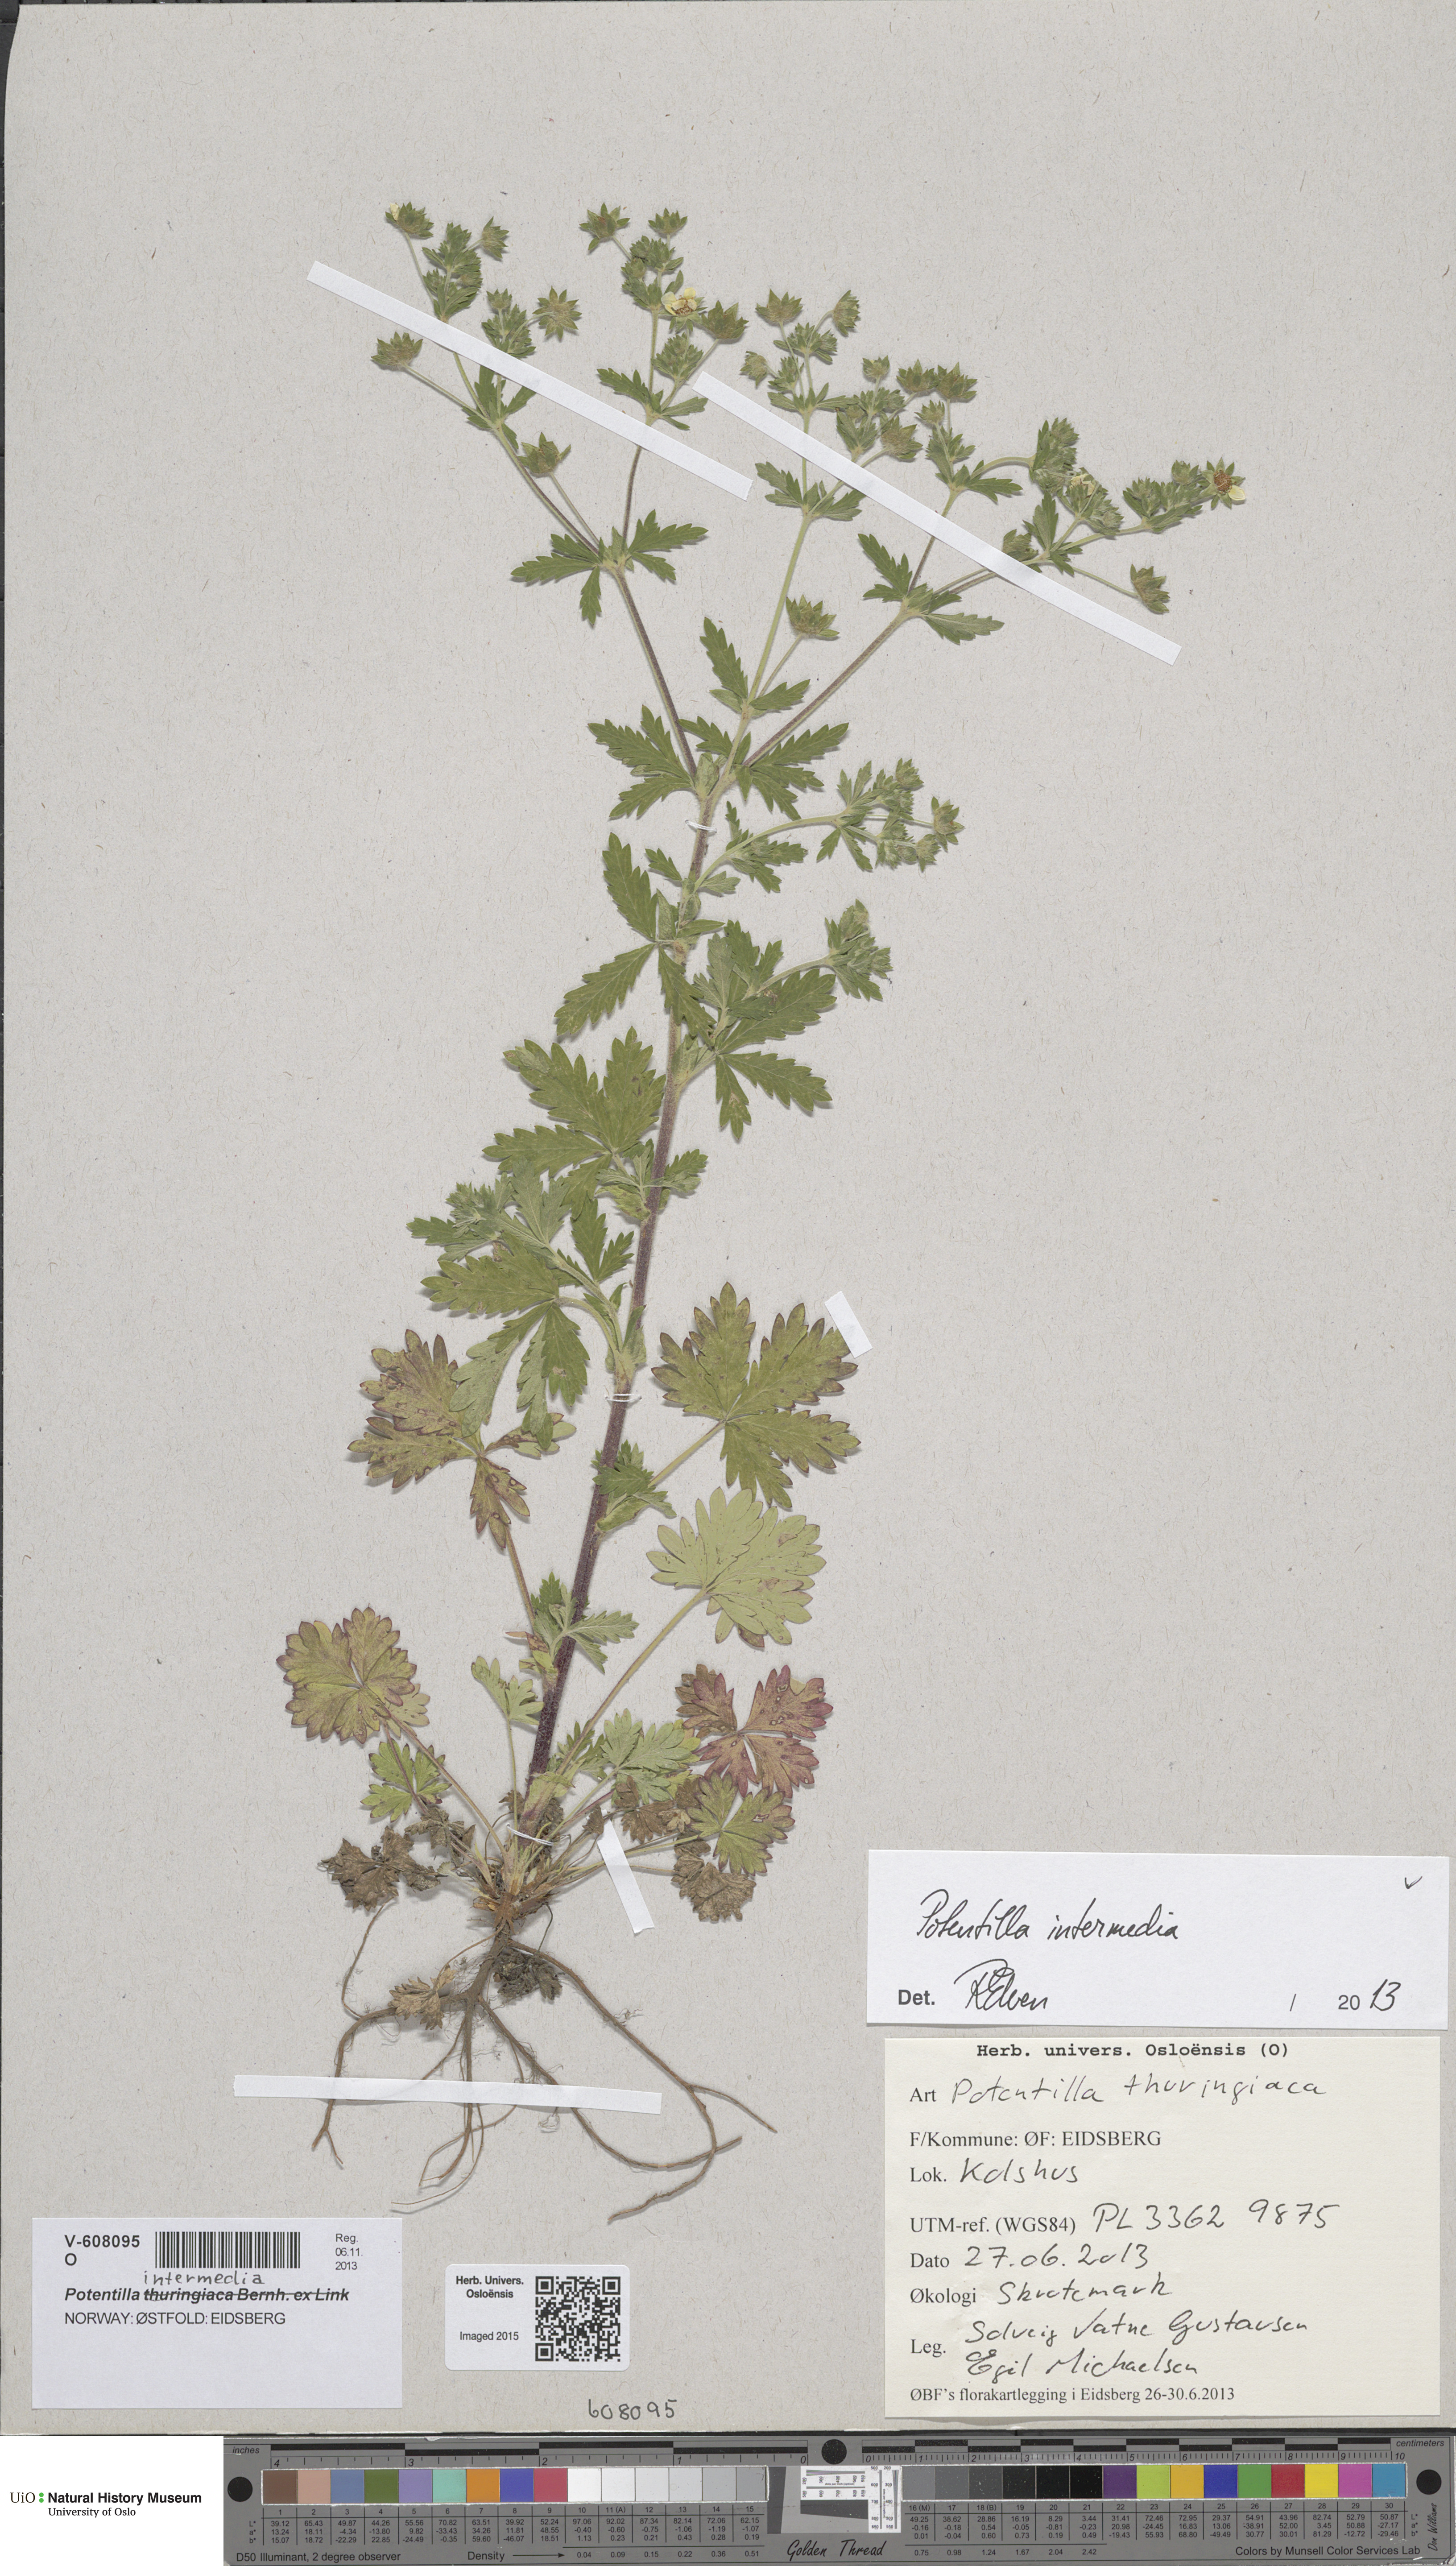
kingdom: Plantae
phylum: Tracheophyta
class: Magnoliopsida
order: Rosales
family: Rosaceae
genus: Potentilla
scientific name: Potentilla intermedia
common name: Downy cinquefoil
